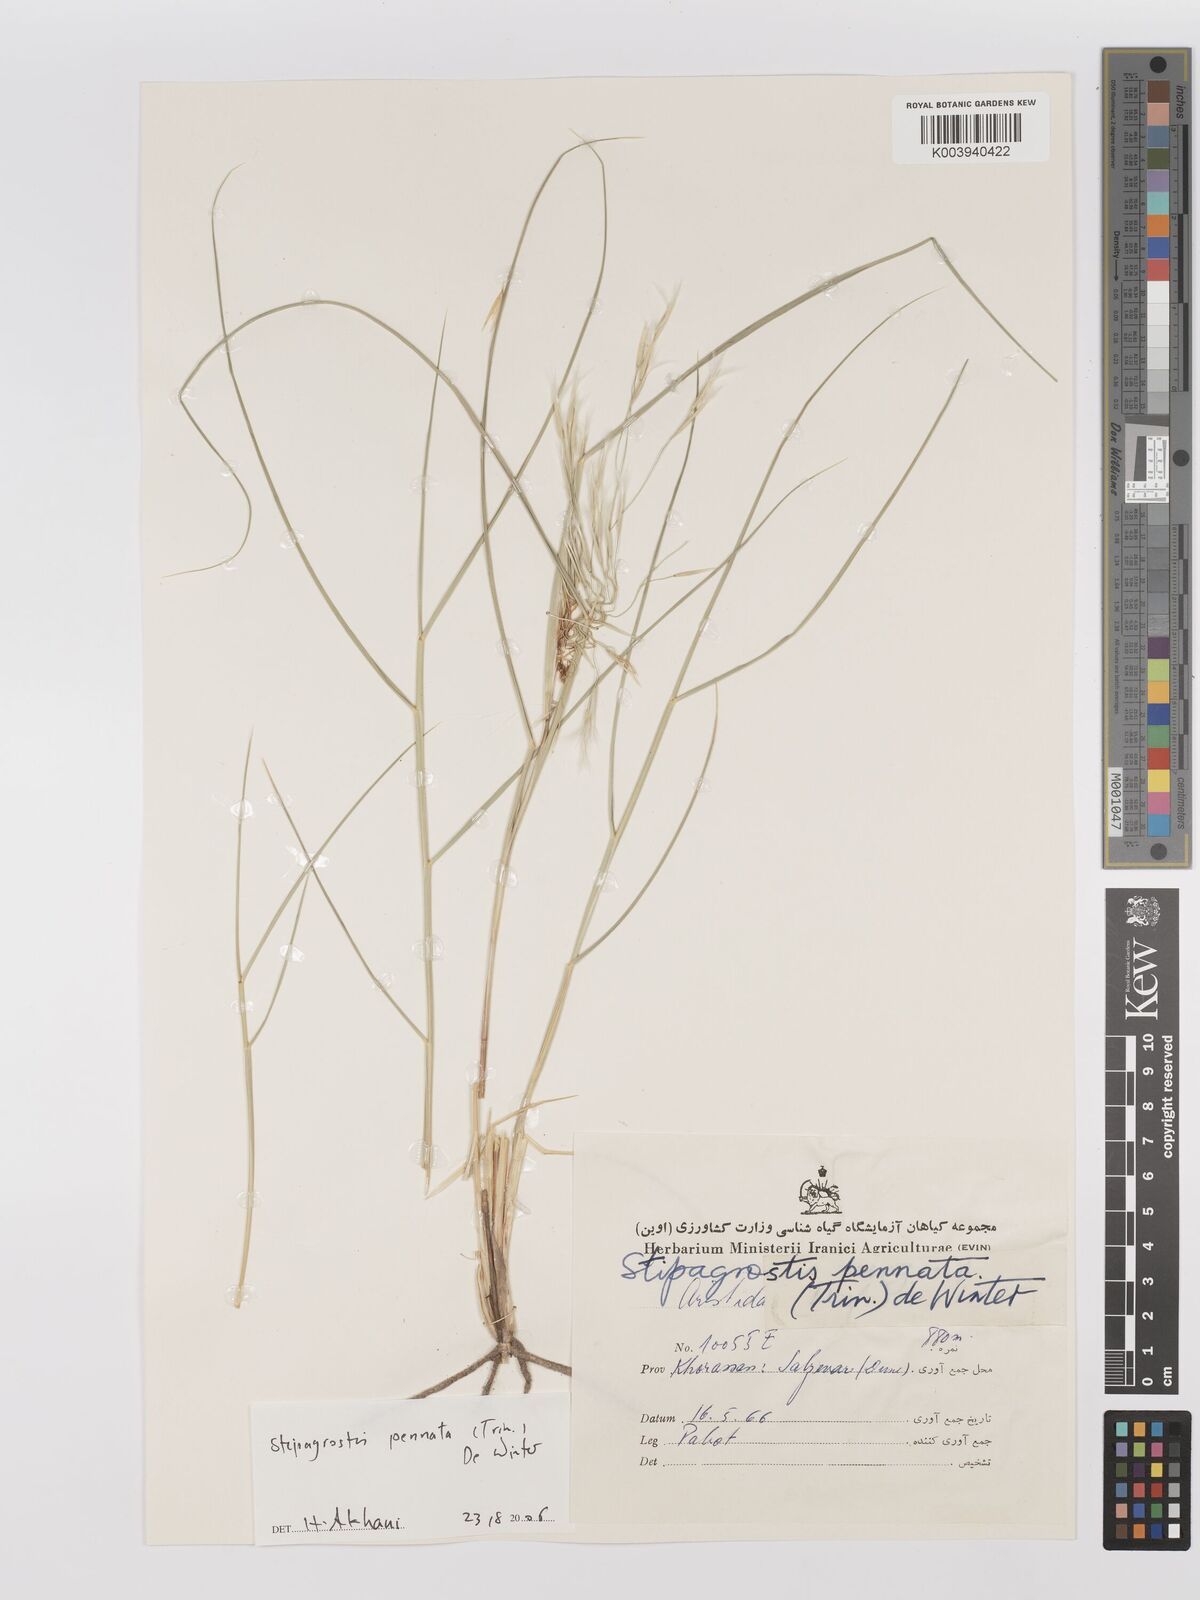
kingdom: Plantae
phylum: Tracheophyta
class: Liliopsida
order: Poales
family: Poaceae
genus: Stipagrostis
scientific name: Stipagrostis pennata
